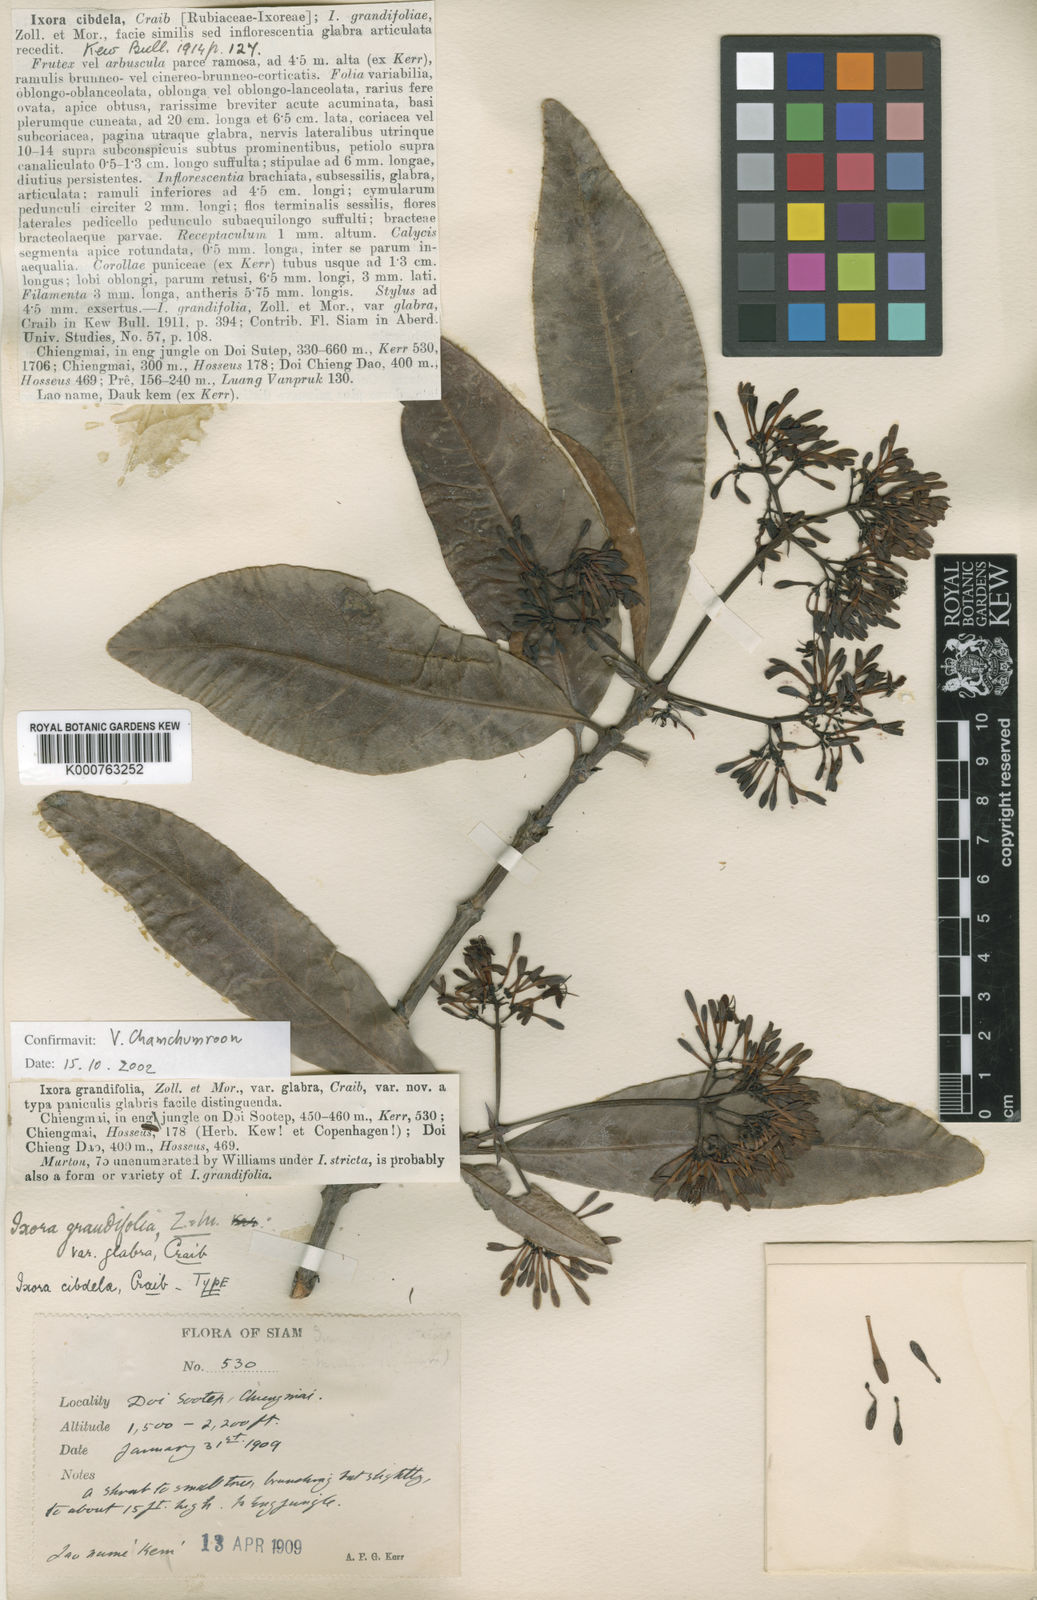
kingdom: Plantae
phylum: Tracheophyta
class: Magnoliopsida
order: Gentianales
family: Rubiaceae
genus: Ixora
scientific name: Ixora cibdela
